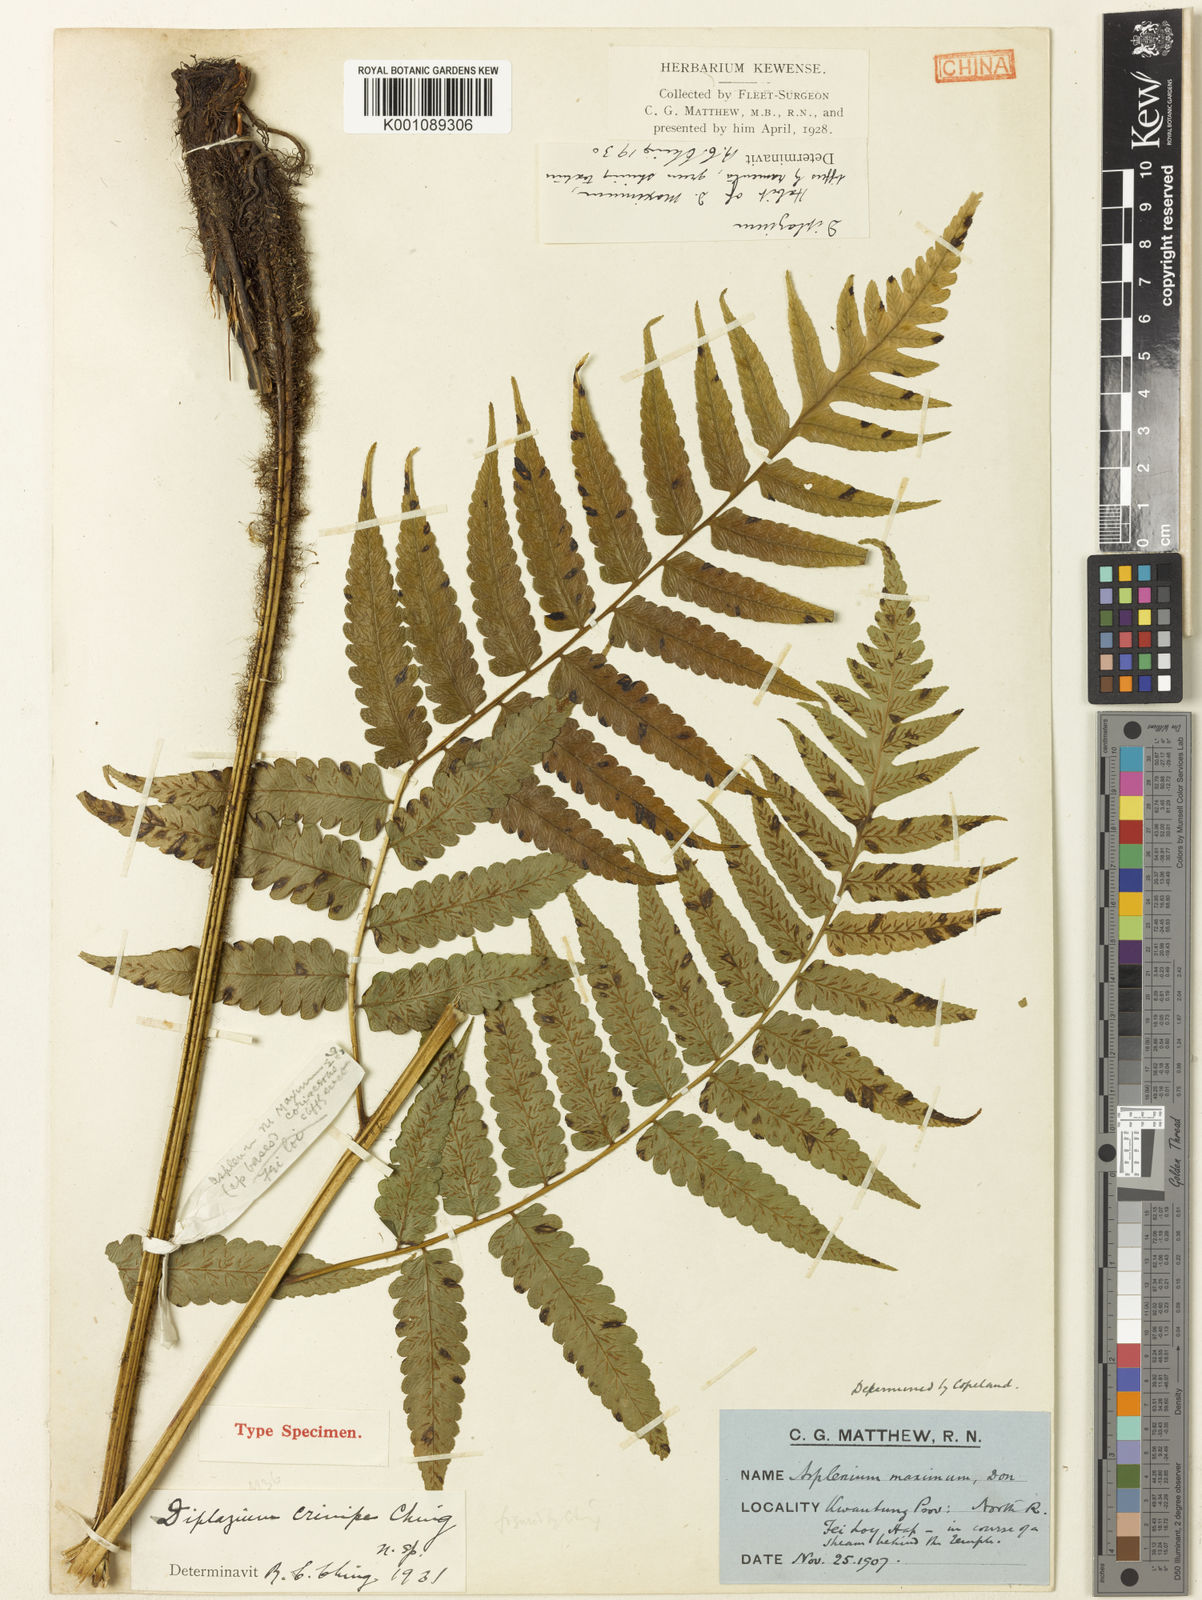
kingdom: Plantae
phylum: Tracheophyta
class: Polypodiopsida
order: Polypodiales
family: Athyriaceae
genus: Diplazium
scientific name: Diplazium dilatatum
